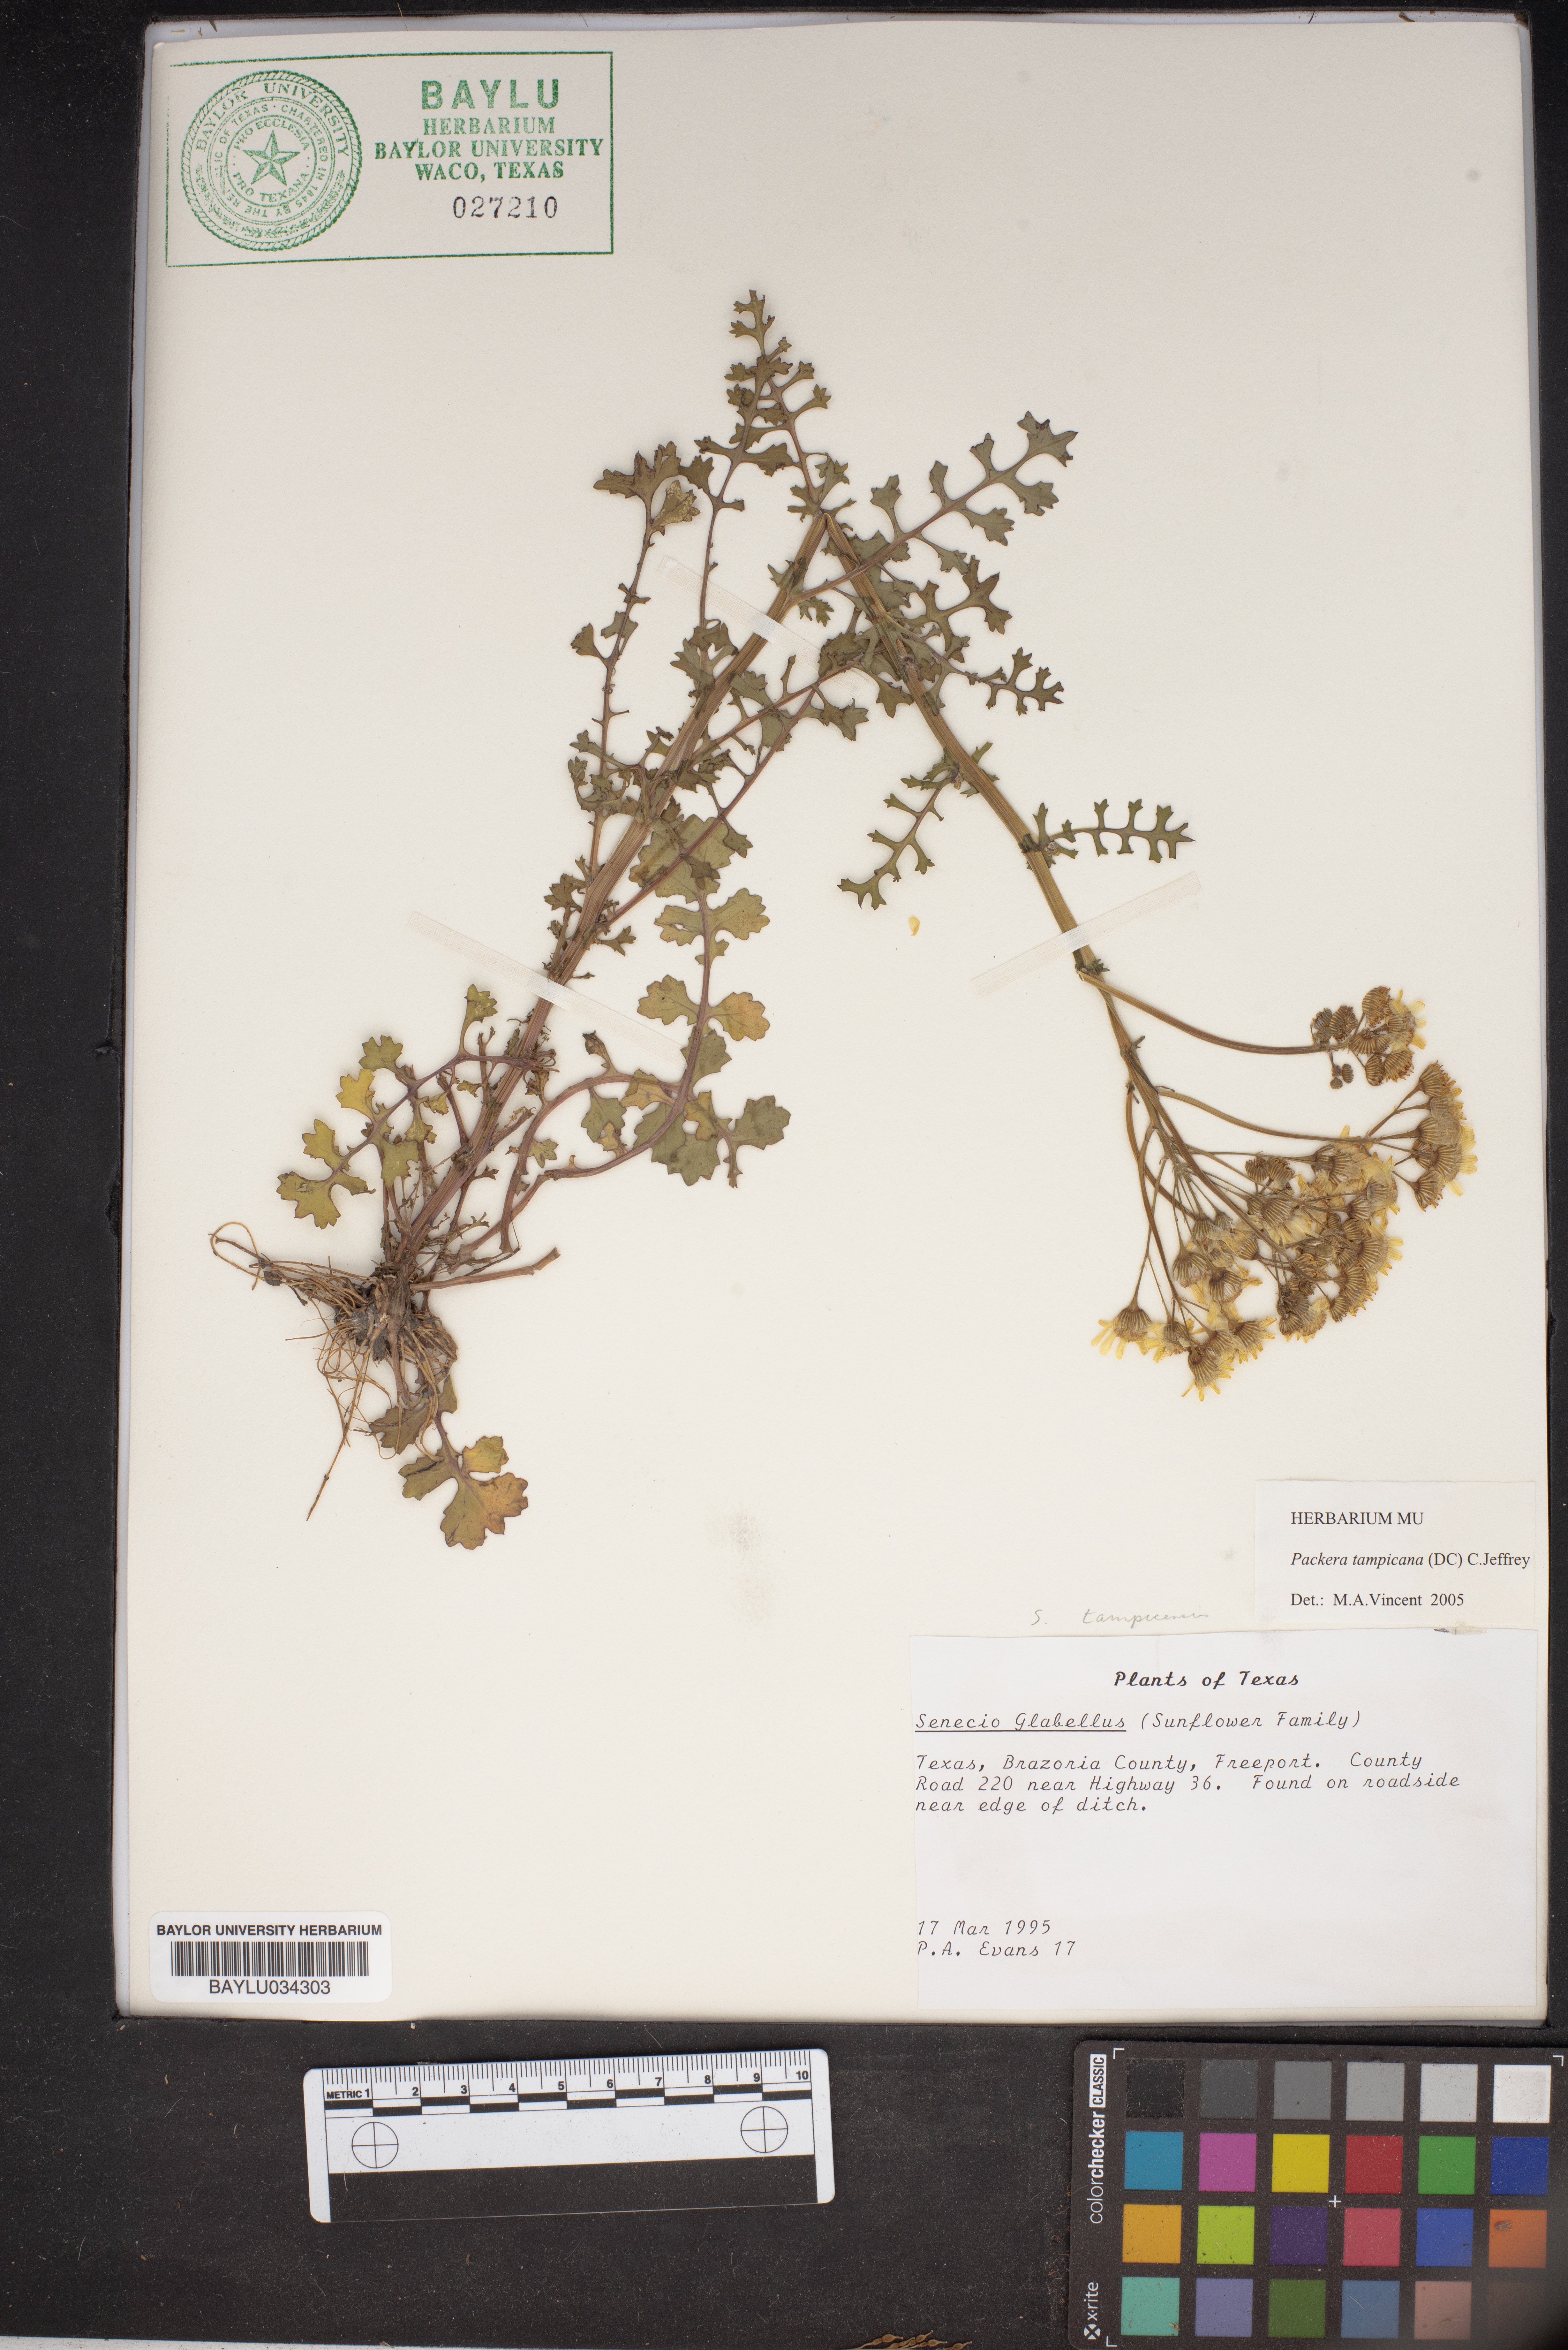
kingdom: Plantae
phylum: Tracheophyta
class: Magnoliopsida
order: Asterales
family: Asteraceae
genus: Packera
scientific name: Packera tampicana
